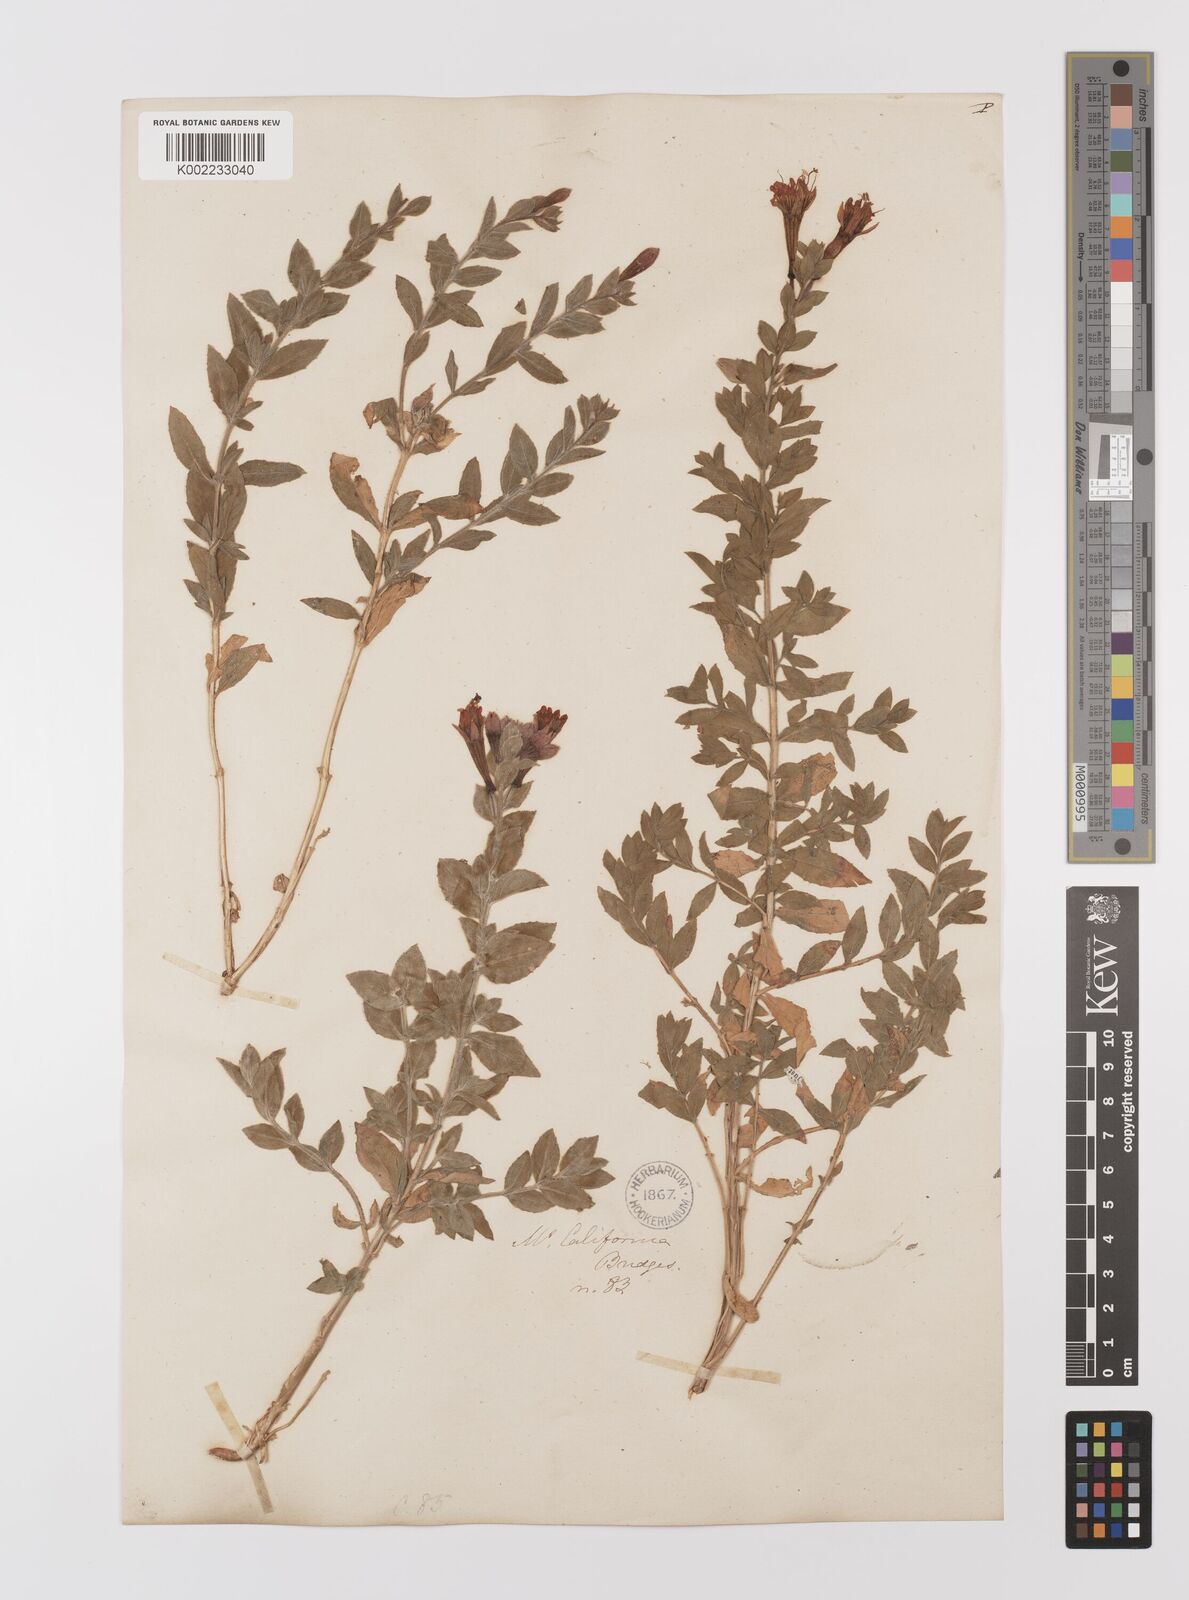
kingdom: Plantae
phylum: Tracheophyta
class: Magnoliopsida
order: Myrtales
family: Onagraceae
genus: Epilobium
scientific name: Epilobium
